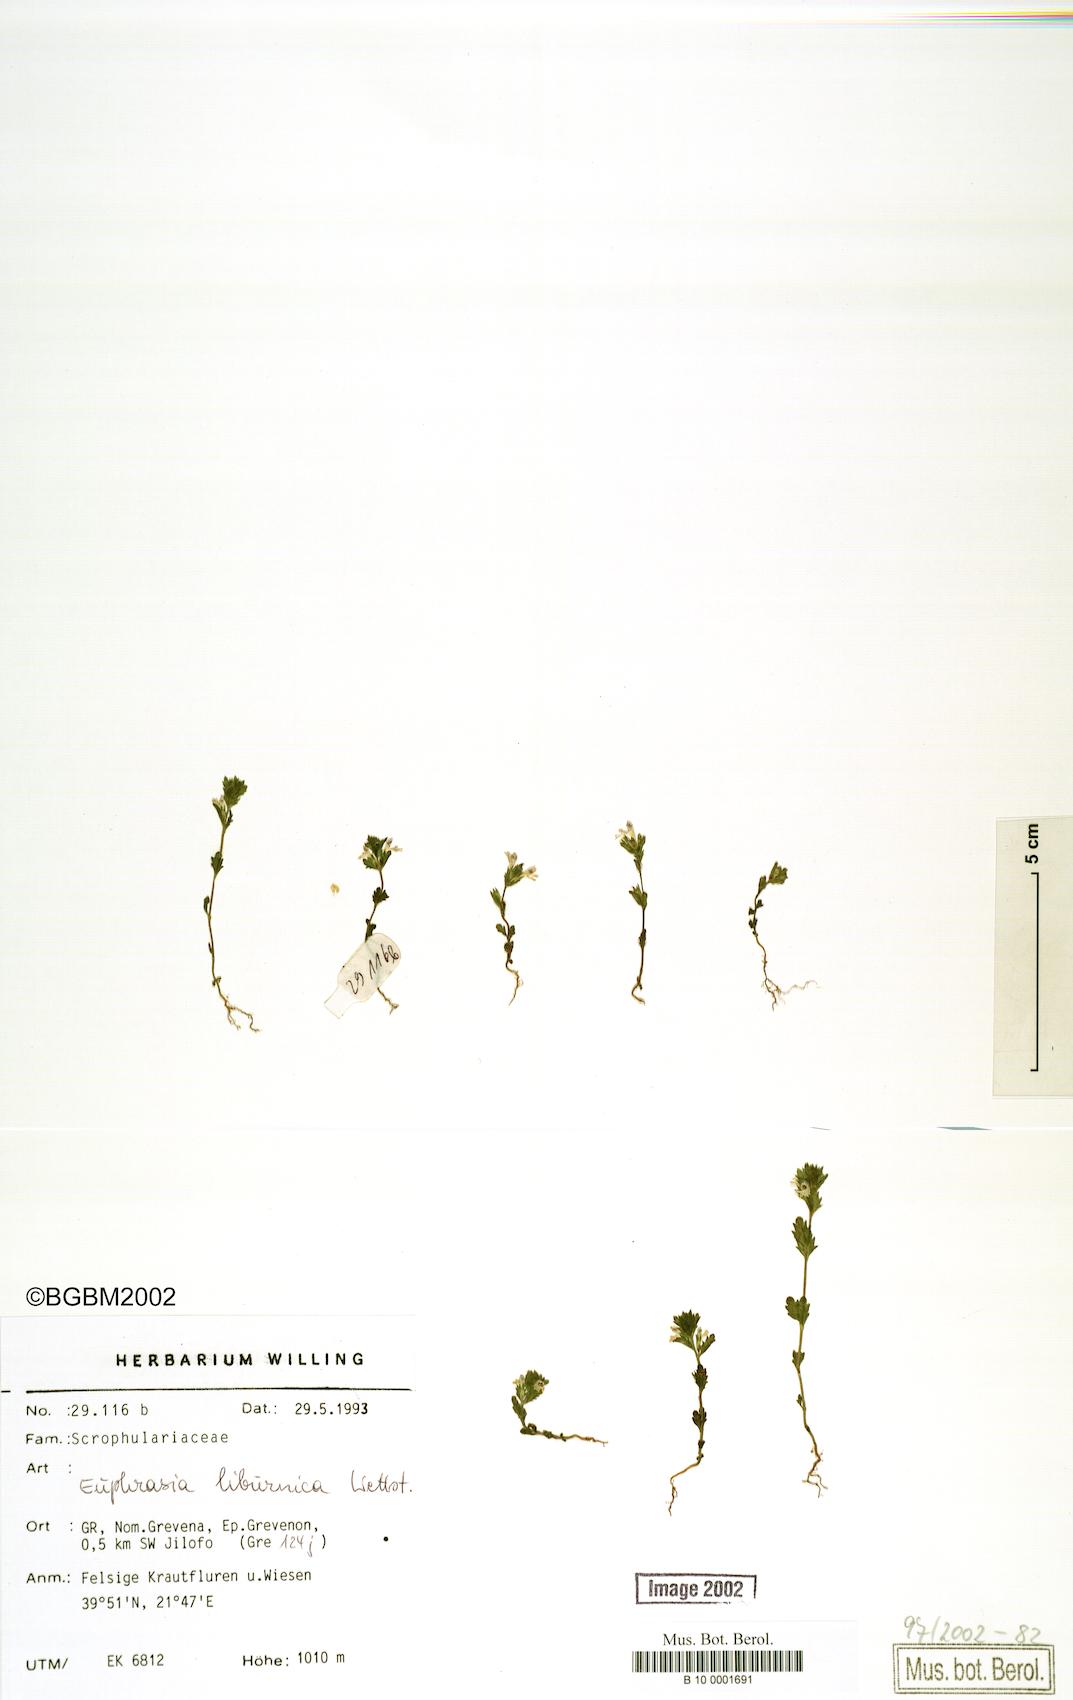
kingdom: Plantae
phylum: Tracheophyta
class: Magnoliopsida
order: Lamiales
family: Orobanchaceae
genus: Euphrasia
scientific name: Euphrasia liburnica
